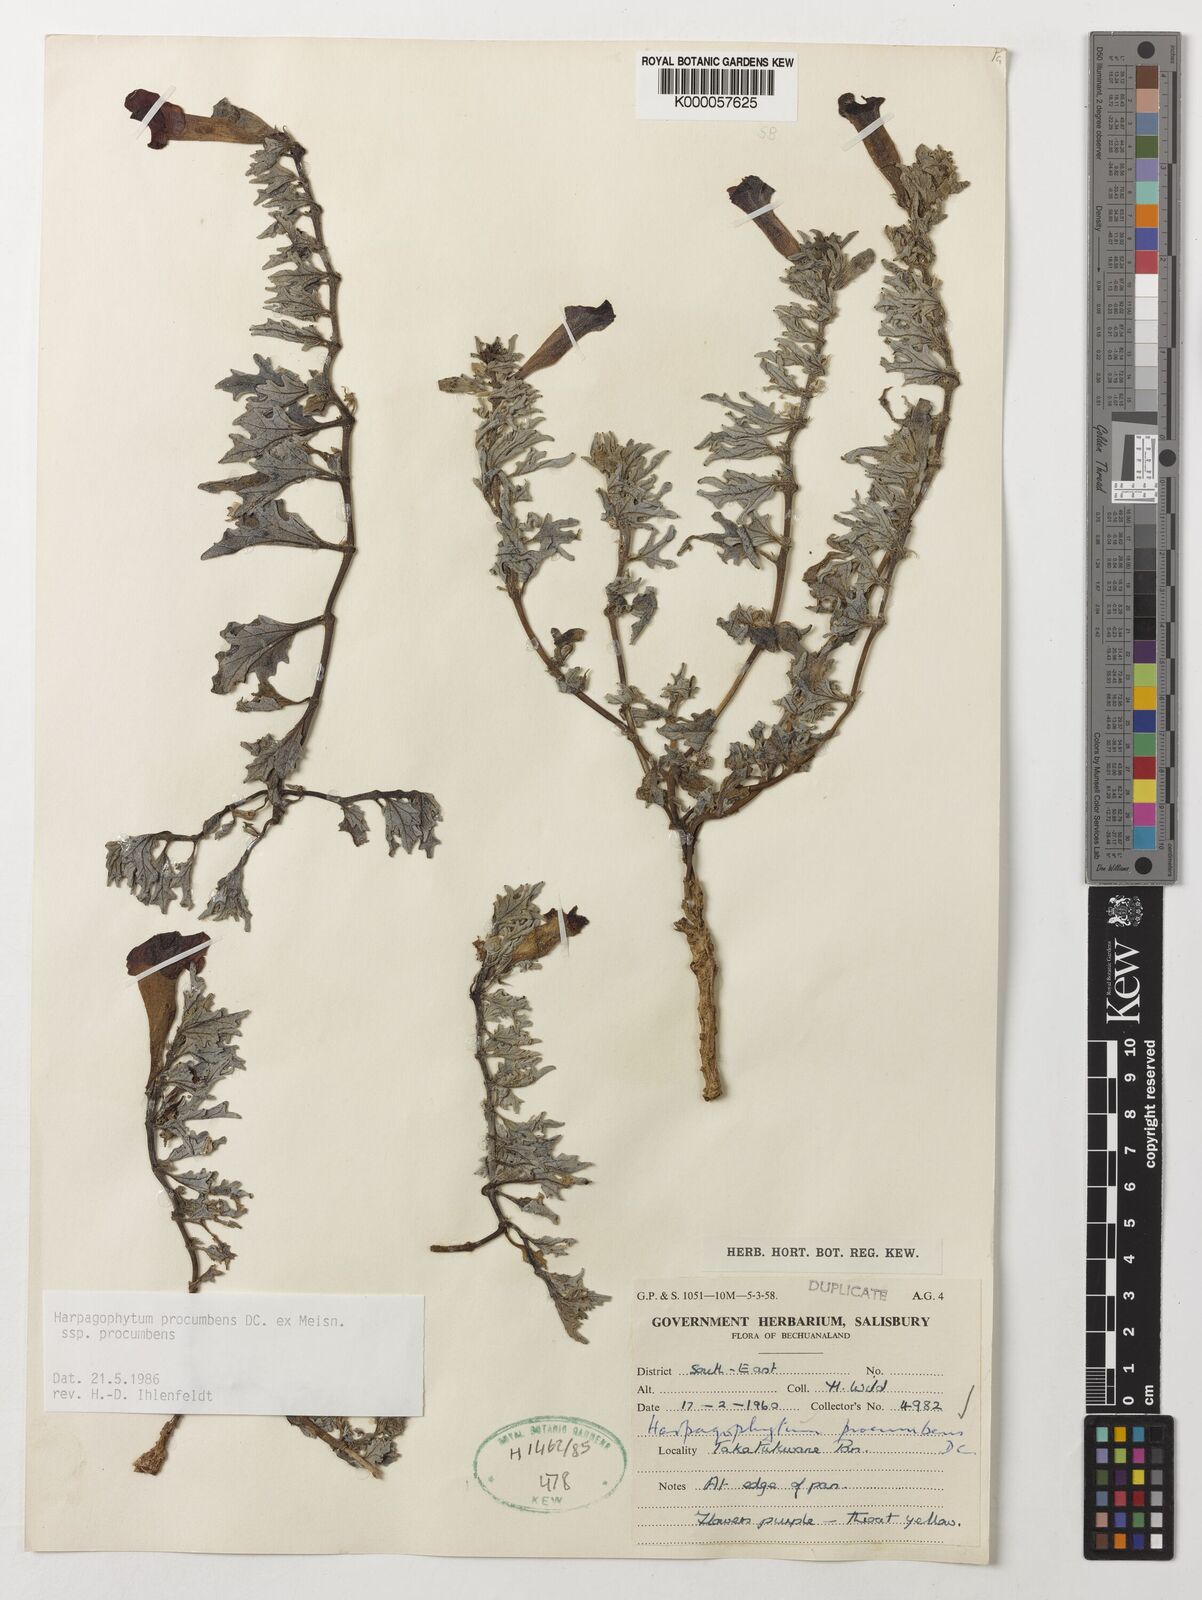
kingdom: Plantae
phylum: Tracheophyta
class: Magnoliopsida
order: Lamiales
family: Pedaliaceae
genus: Harpagophytum
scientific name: Harpagophytum procumbens
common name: Grappleplant
